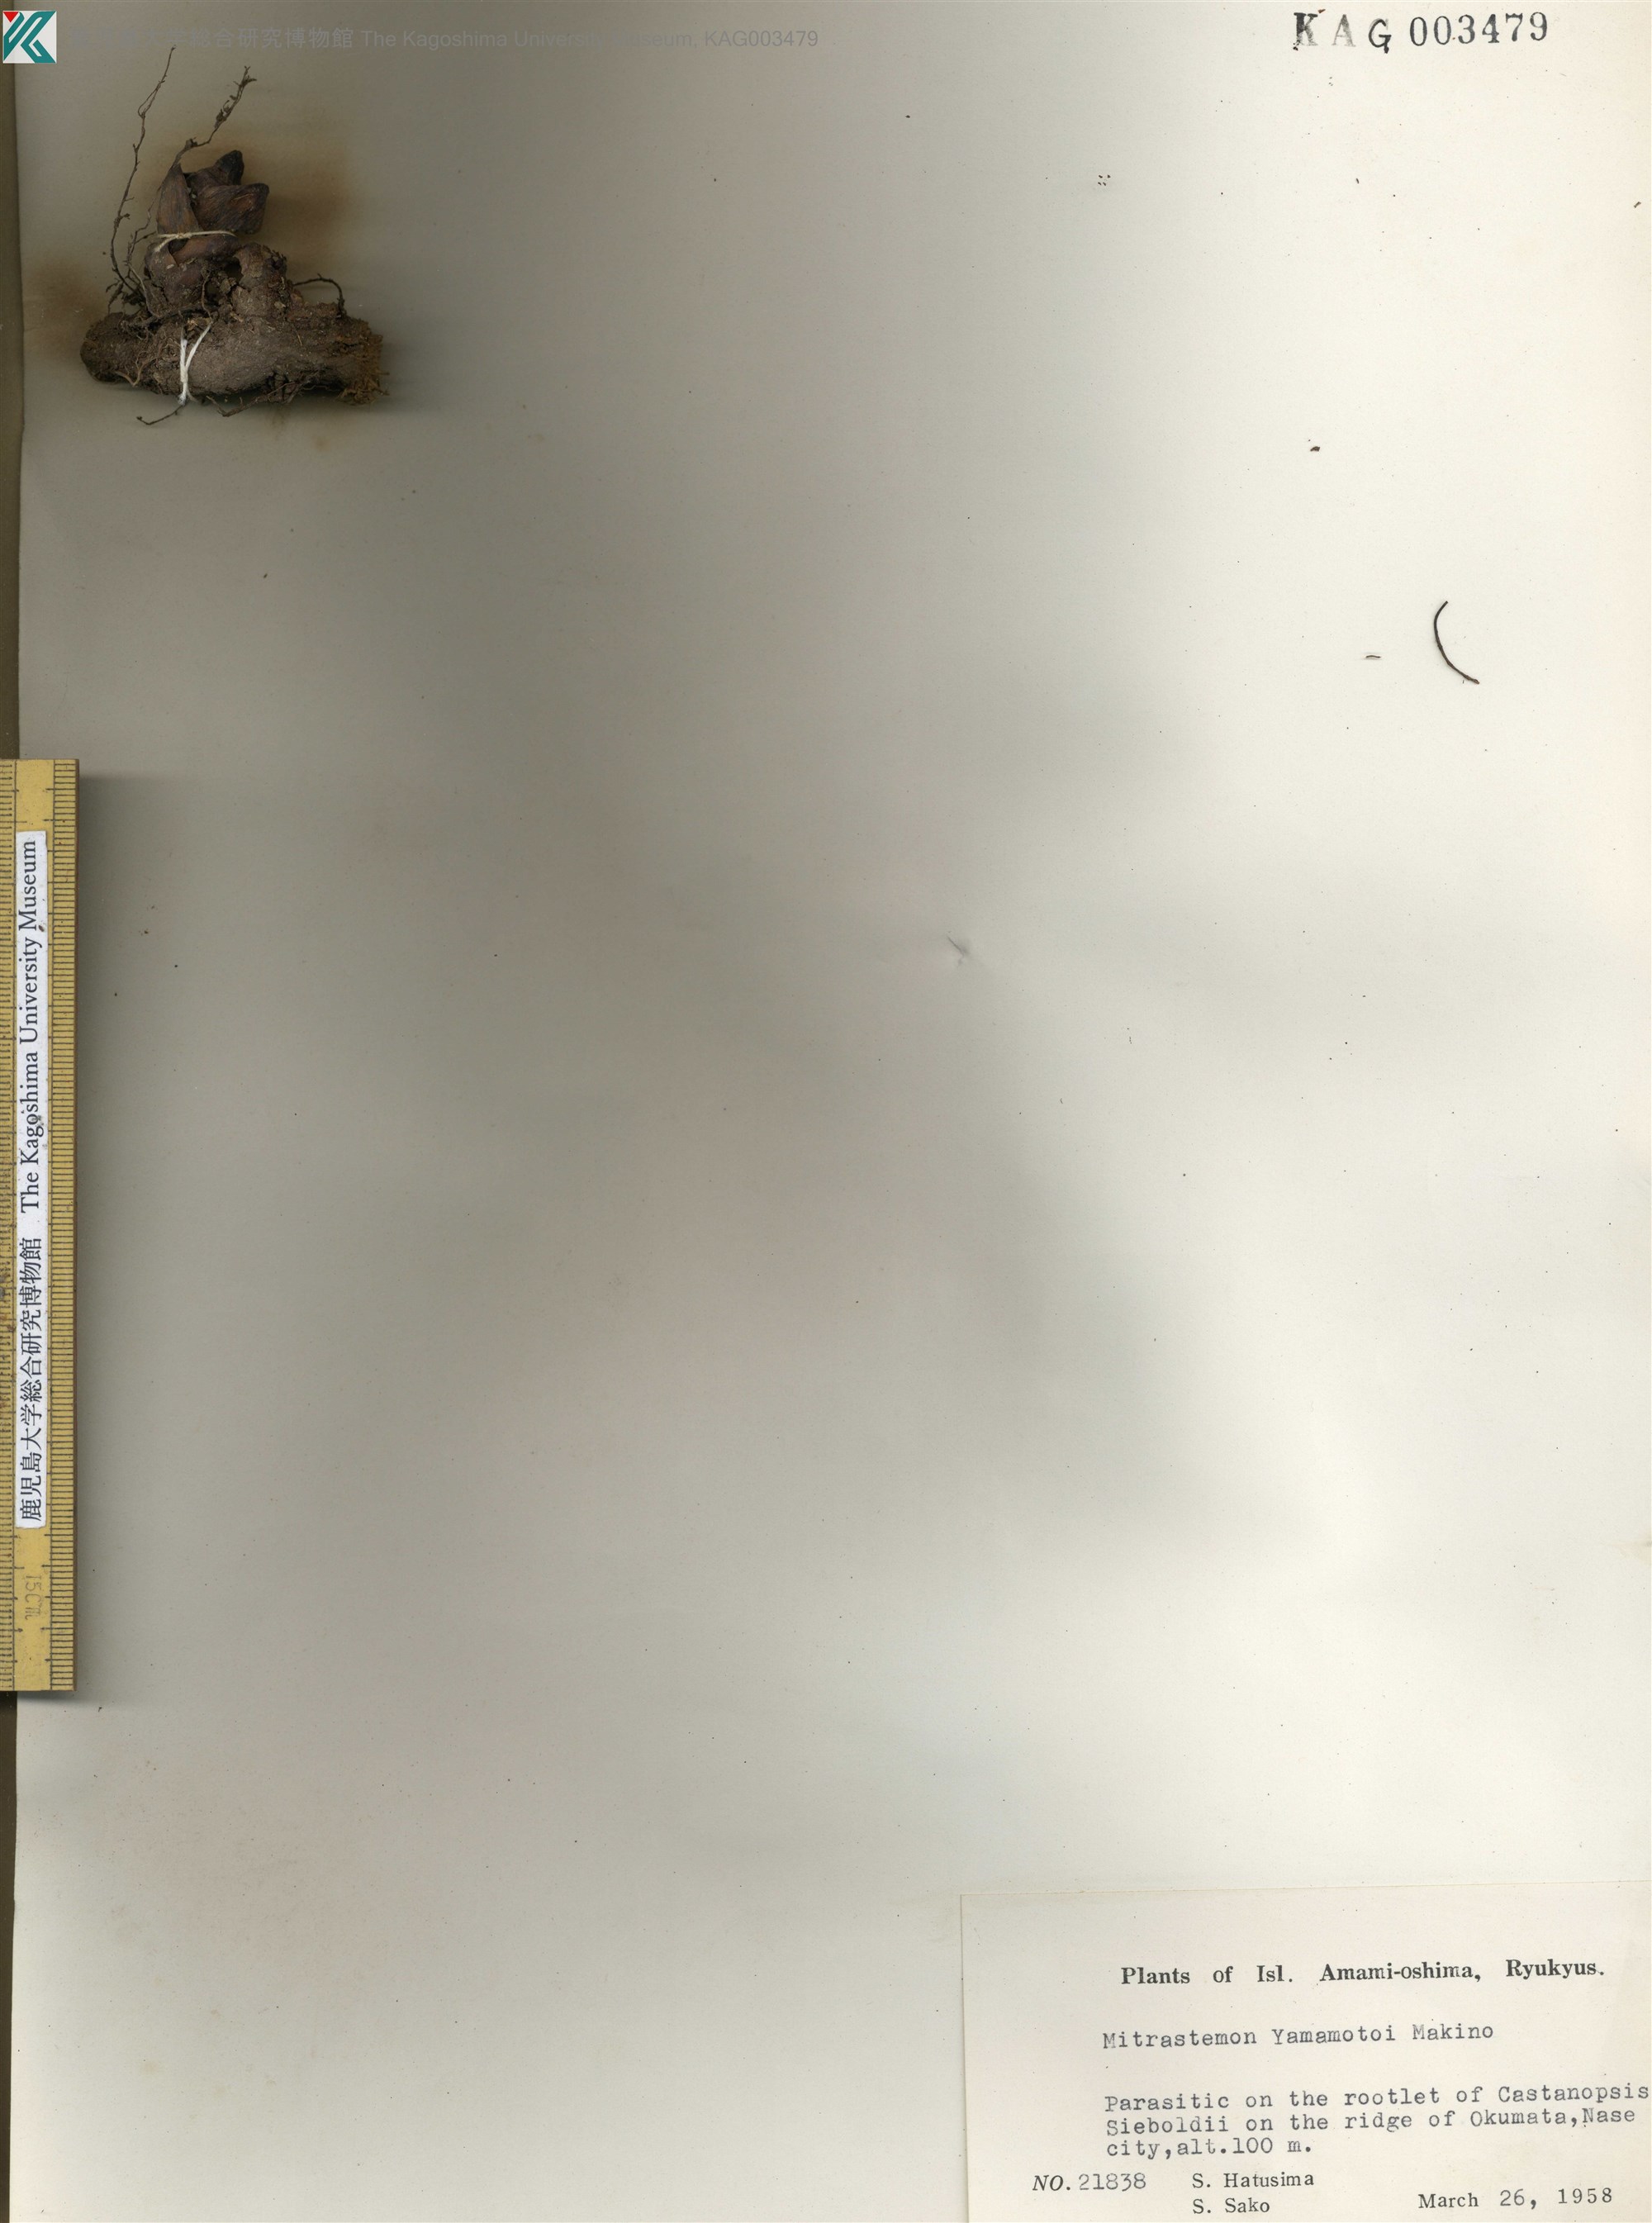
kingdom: Plantae
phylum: Tracheophyta
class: Magnoliopsida
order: Ericales
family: Mitrastemonaceae
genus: Mitrastemon
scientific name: Mitrastemon yamamotoi
